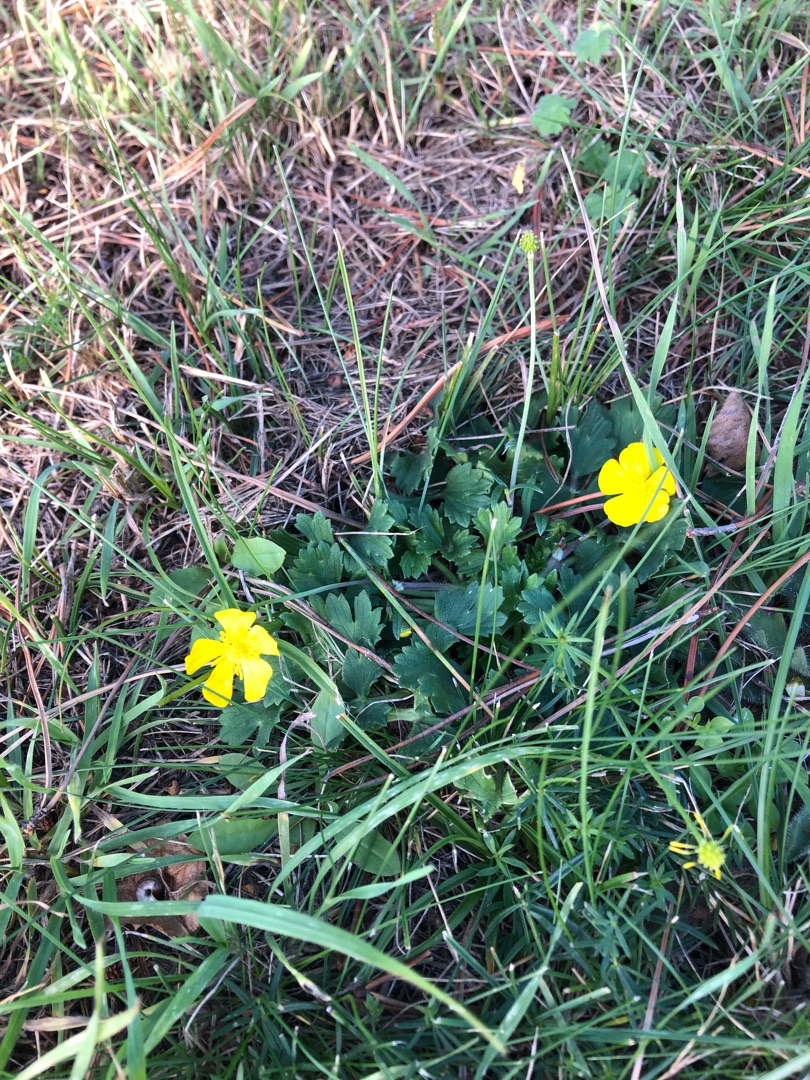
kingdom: Plantae
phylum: Tracheophyta
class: Magnoliopsida
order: Ranunculales
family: Ranunculaceae
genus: Ranunculus
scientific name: Ranunculus bulbosus
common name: Knold-ranunkel
